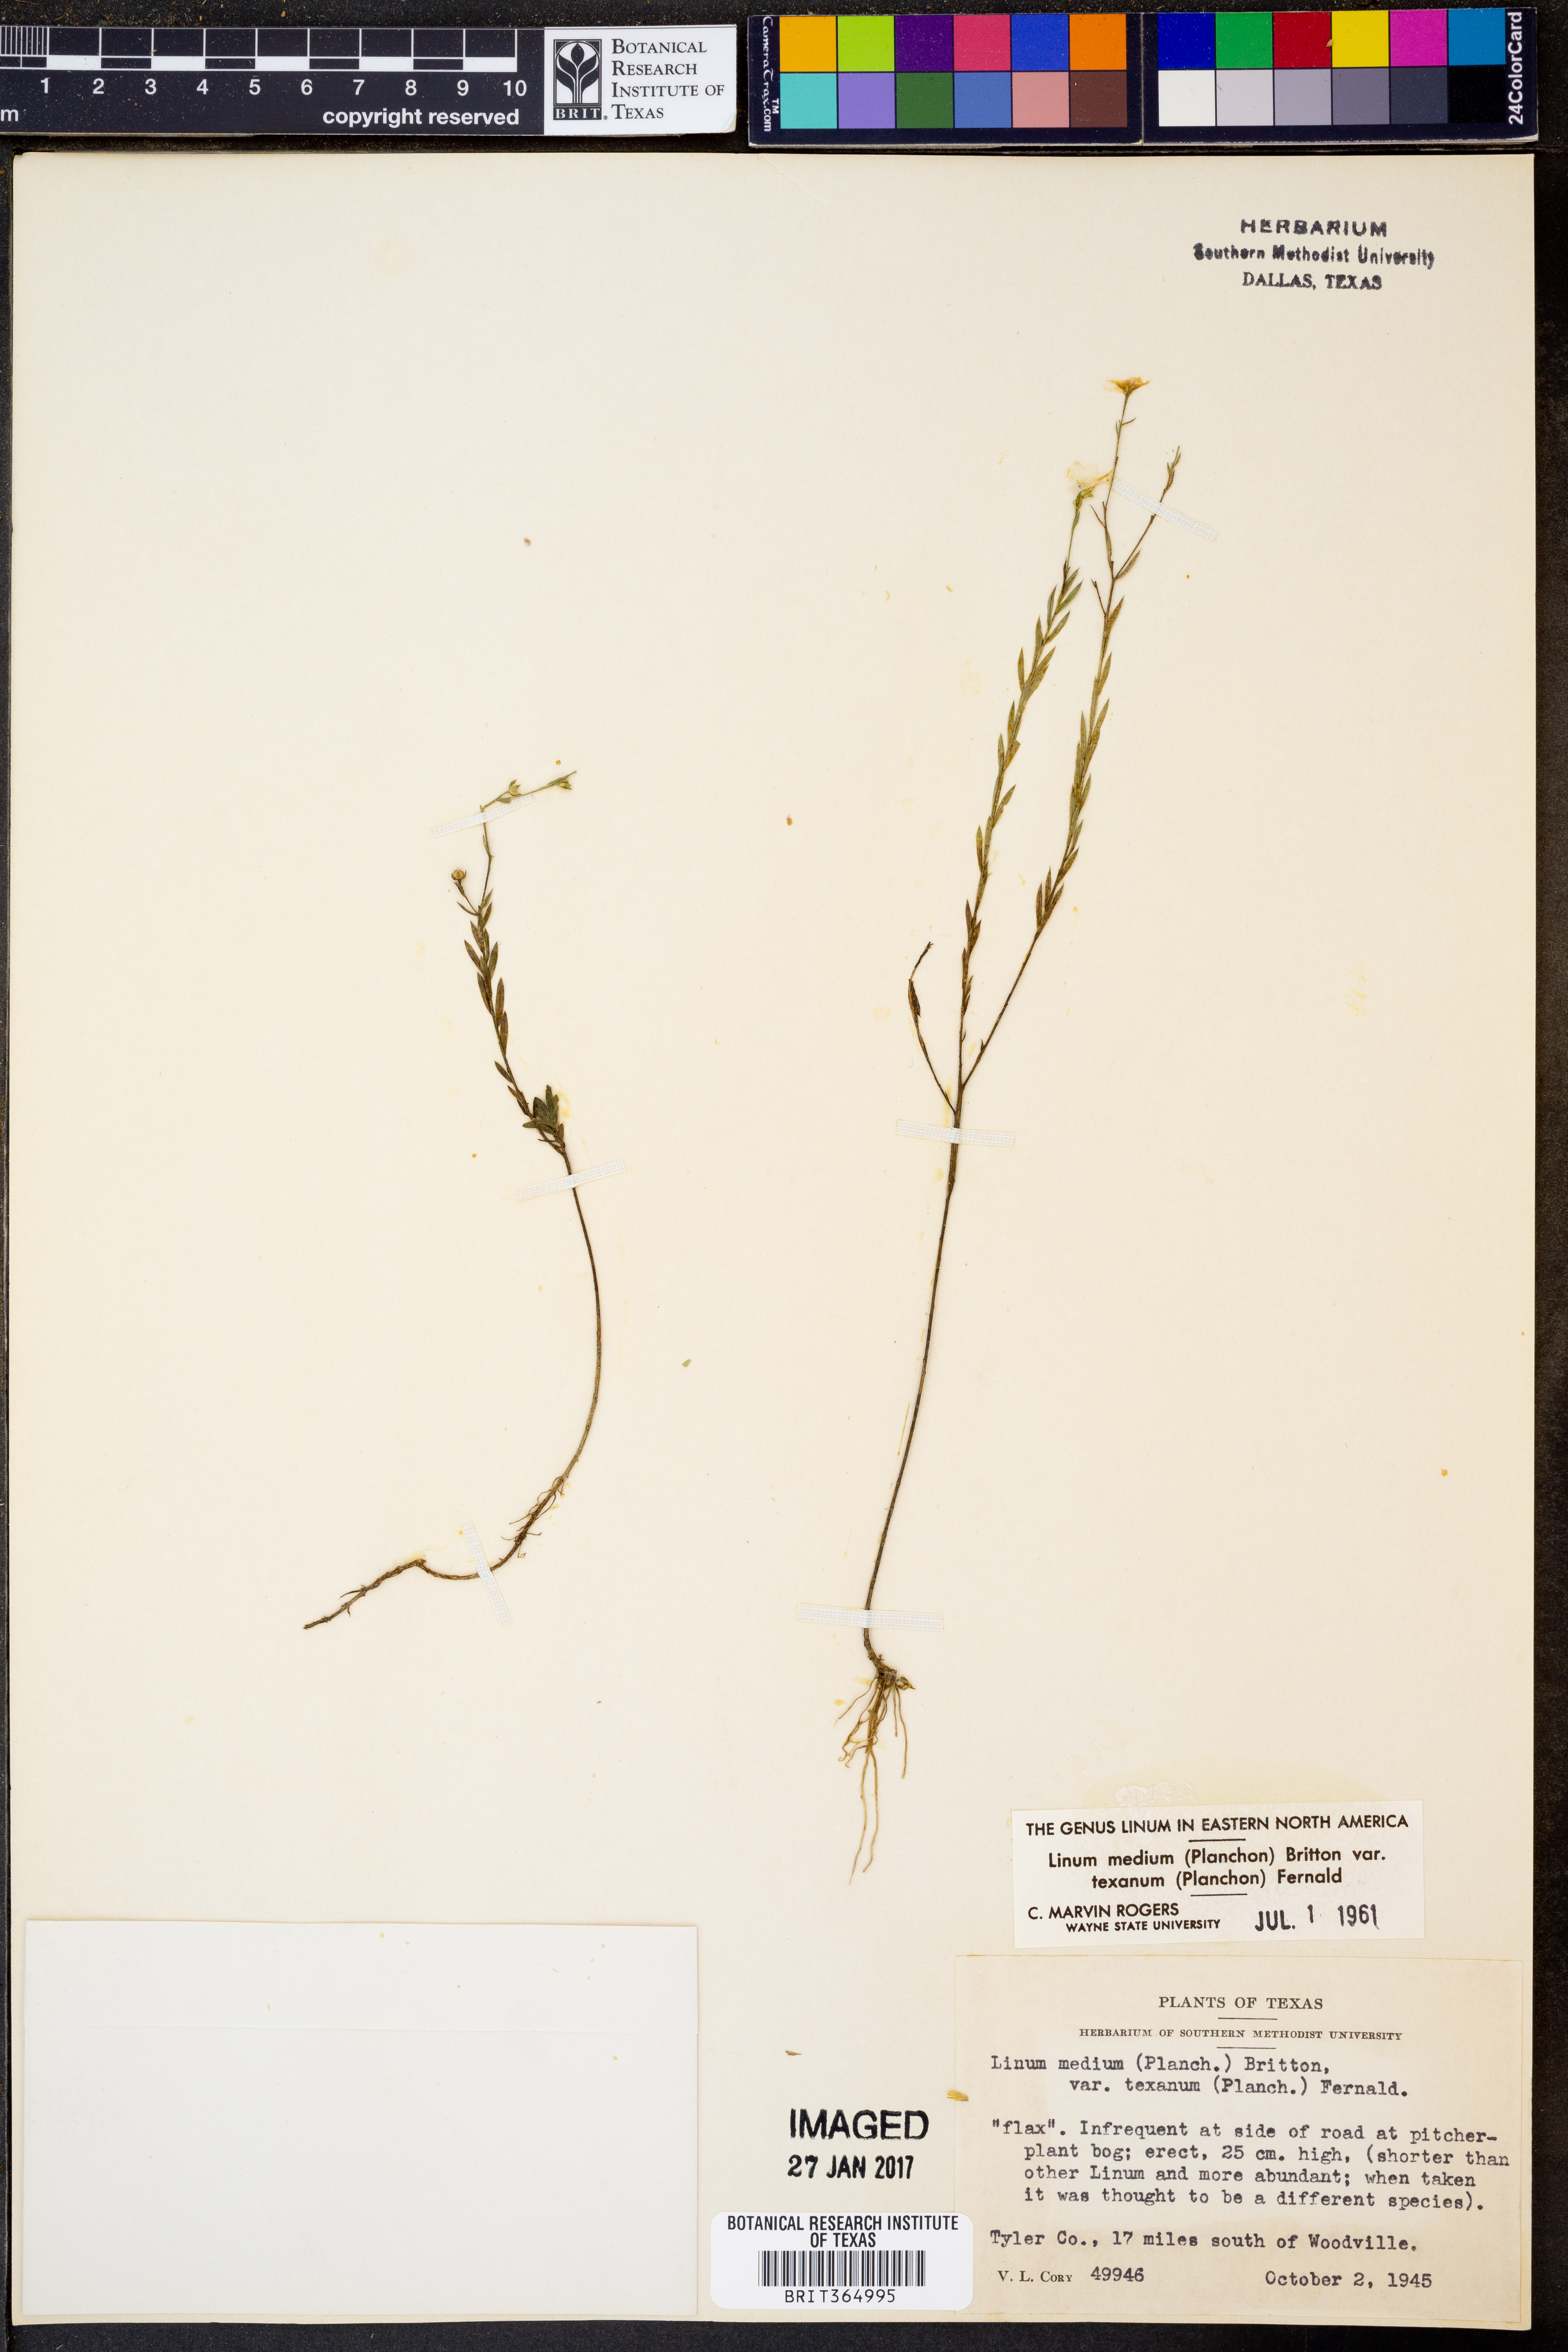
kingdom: Plantae
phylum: Tracheophyta
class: Magnoliopsida
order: Malpighiales
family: Linaceae
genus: Linum
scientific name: Linum medium
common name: Stiff yellow flax
